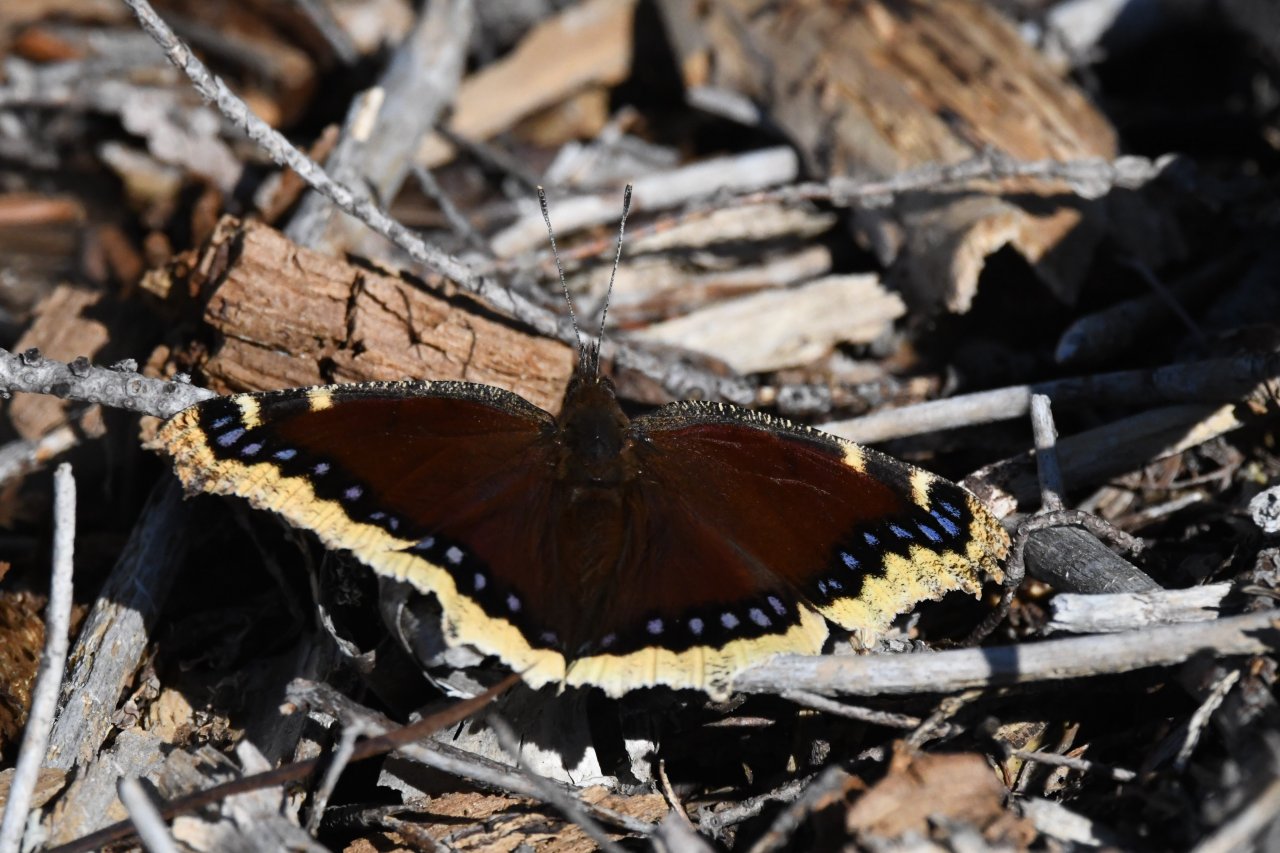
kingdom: Animalia
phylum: Arthropoda
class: Insecta
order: Lepidoptera
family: Nymphalidae
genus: Nymphalis
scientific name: Nymphalis antiopa
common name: Mourning Cloak
